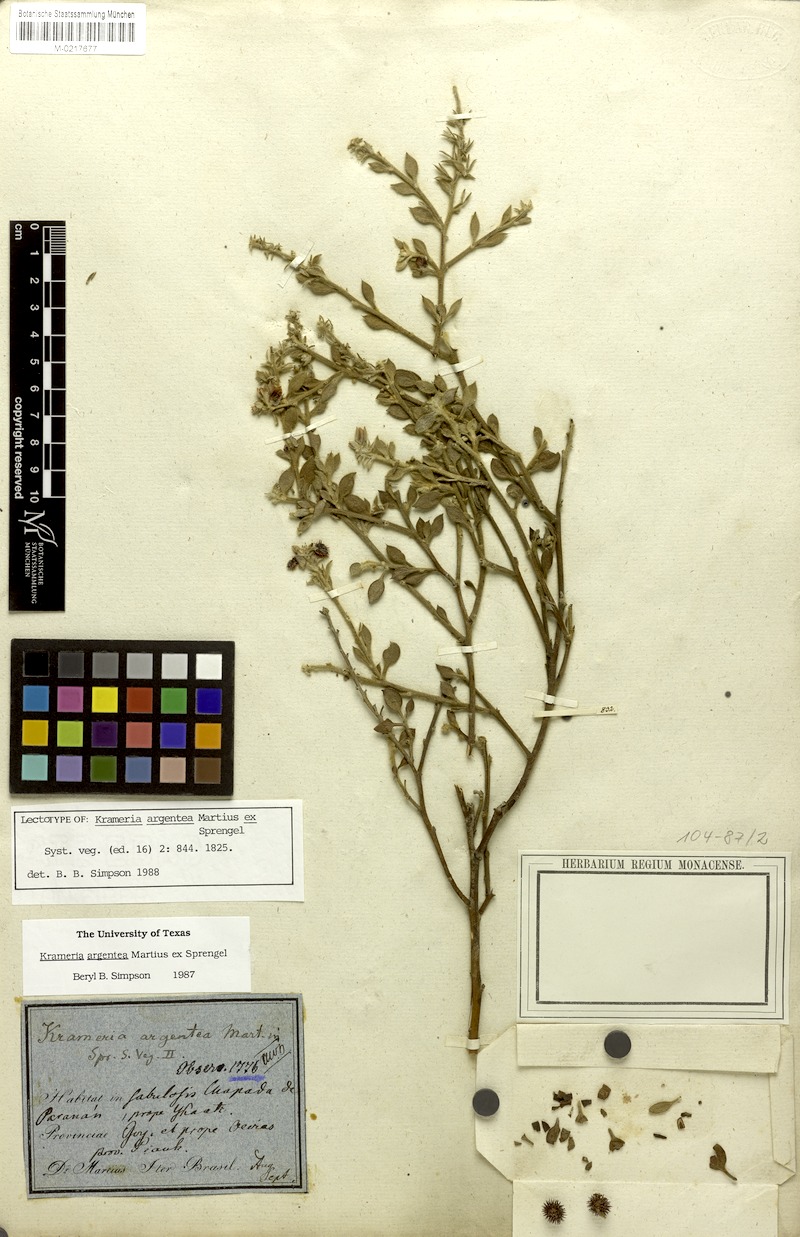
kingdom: Plantae
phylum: Tracheophyta
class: Magnoliopsida
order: Zygophyllales
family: Krameriaceae
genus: Krameria
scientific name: Krameria argentea
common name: Brown-rhatany,-ceará-rhatany
